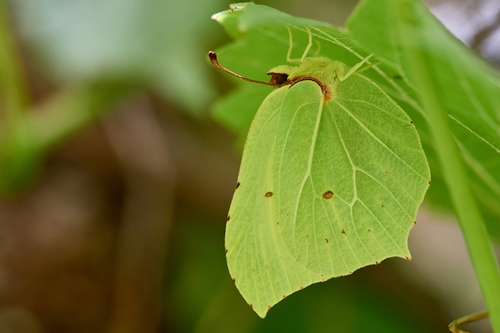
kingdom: Animalia
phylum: Arthropoda
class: Insecta
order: Lepidoptera
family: Pieridae
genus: Gonepteryx
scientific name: Gonepteryx rhamni
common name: Brimstone
